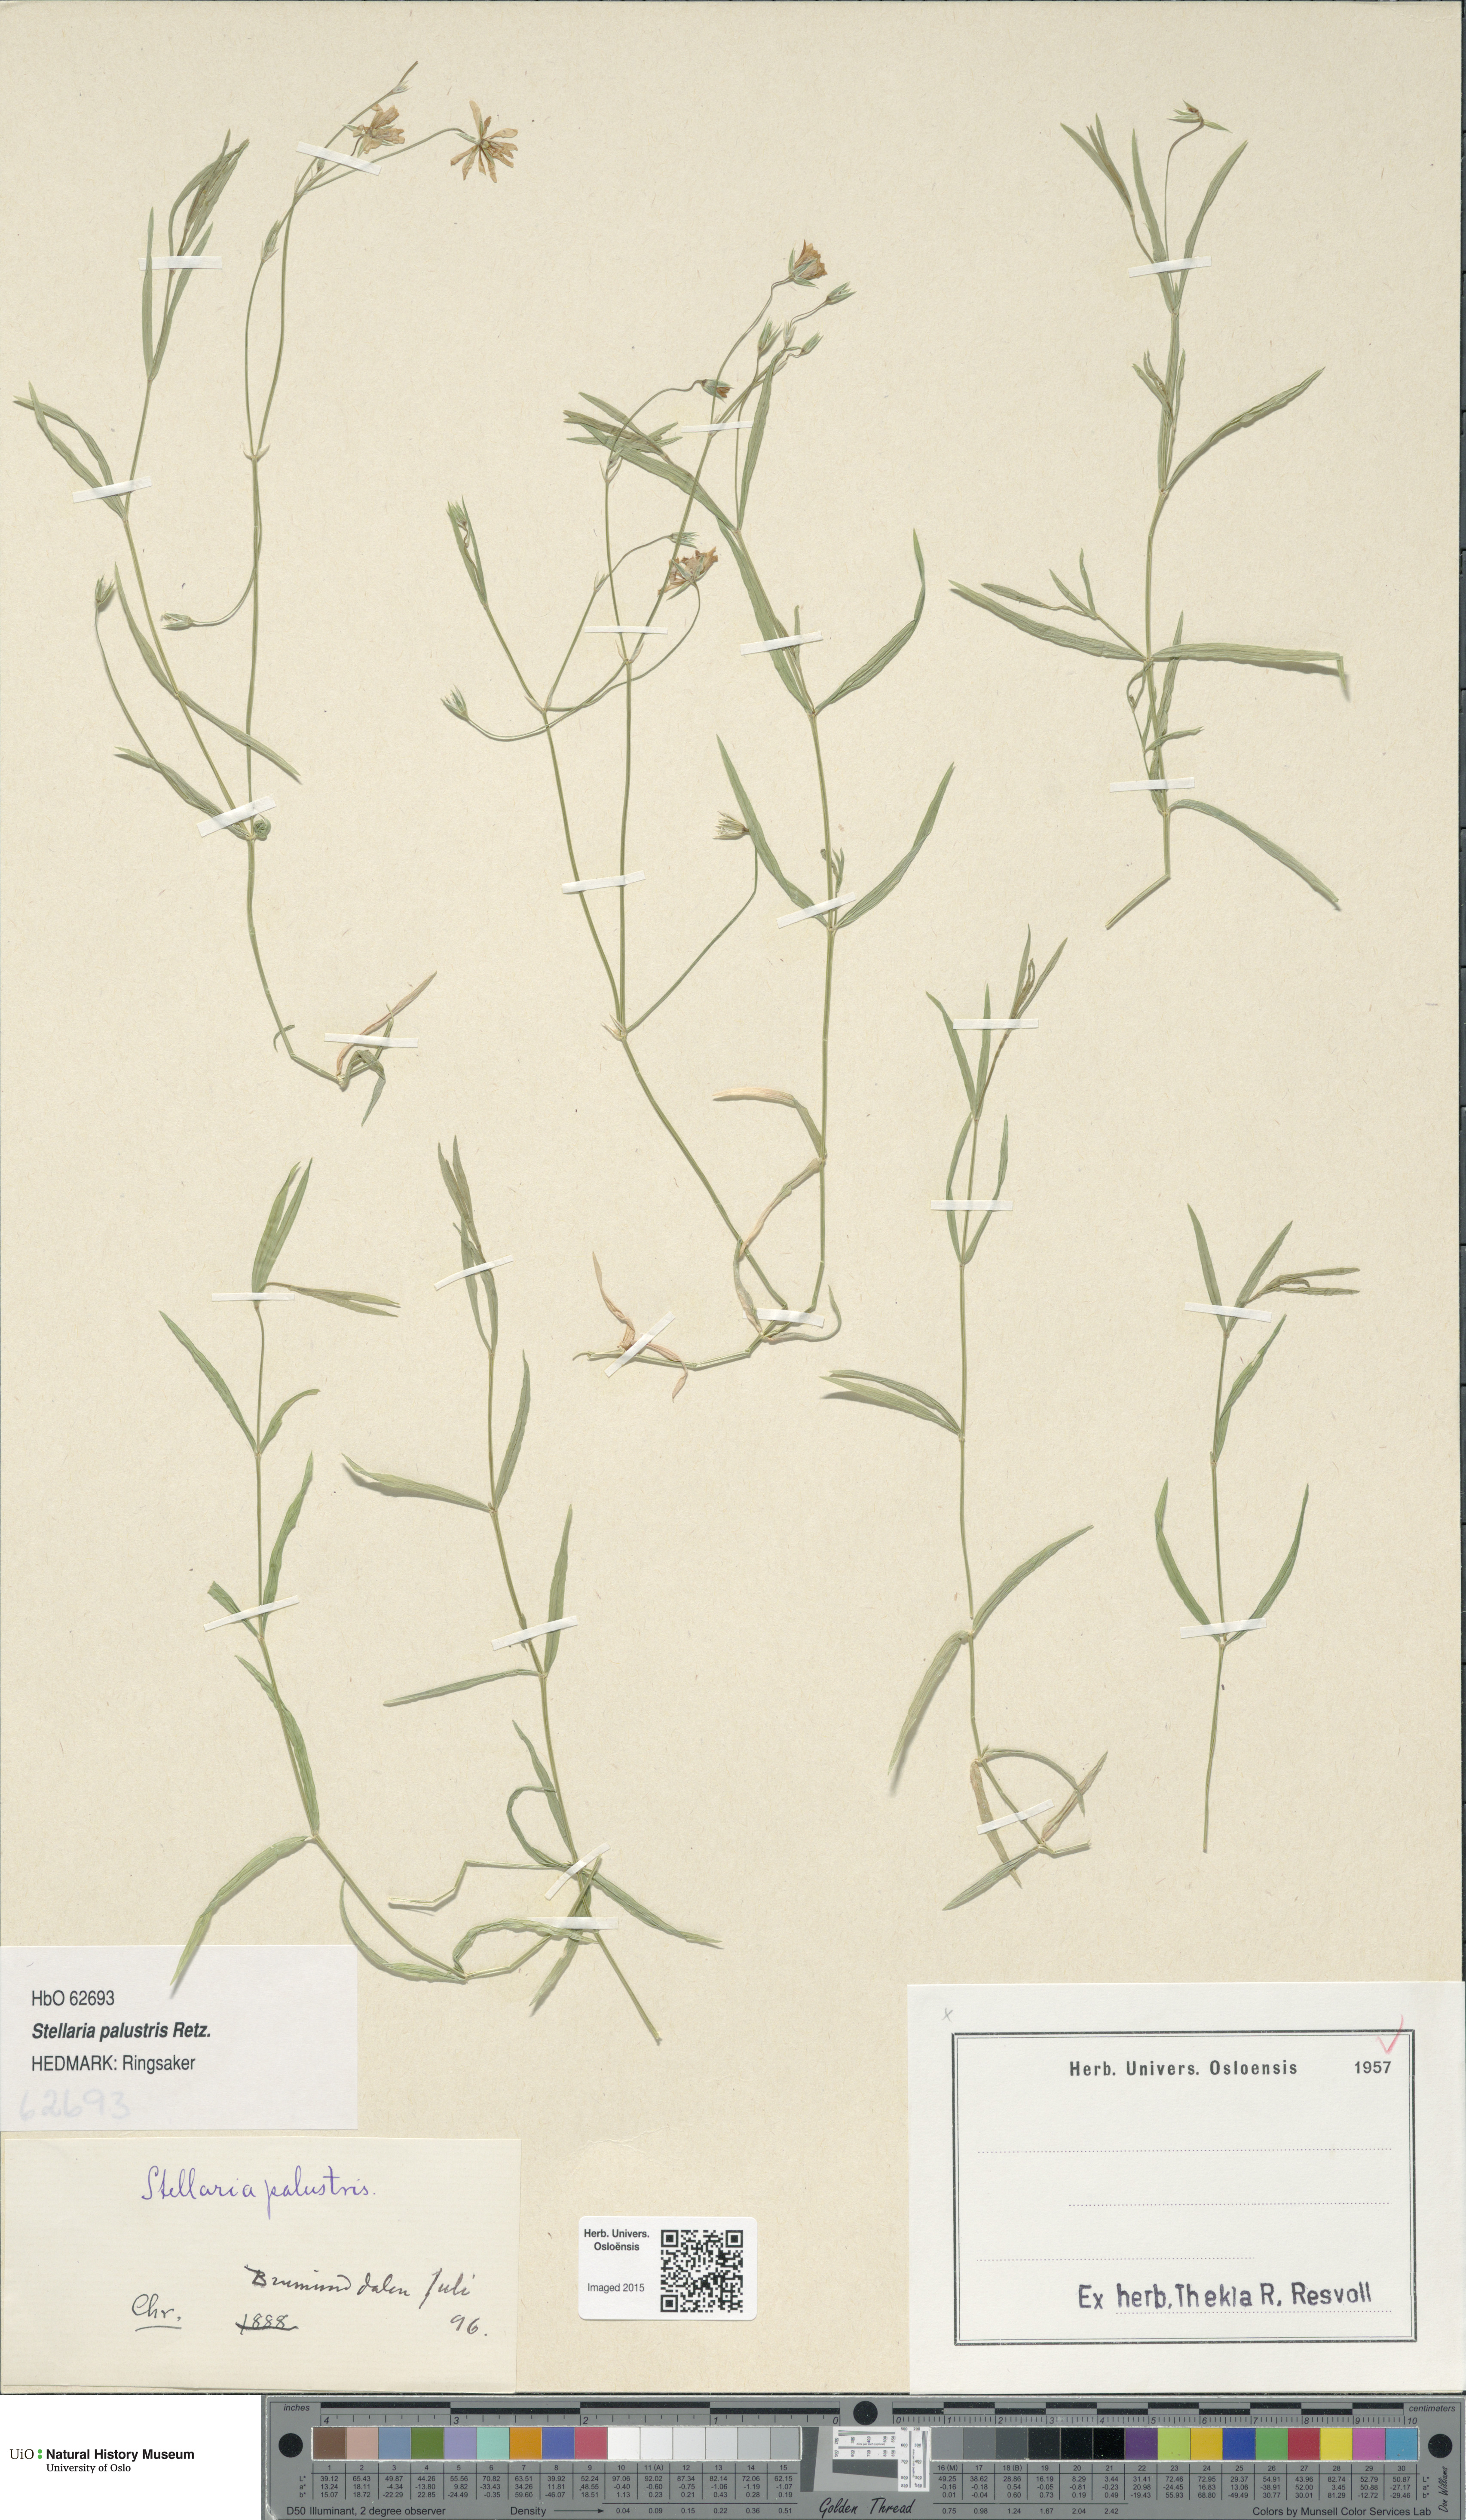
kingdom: Plantae
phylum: Tracheophyta
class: Magnoliopsida
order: Caryophyllales
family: Caryophyllaceae
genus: Stellaria
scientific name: Stellaria palustris
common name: Marsh stitchwort
